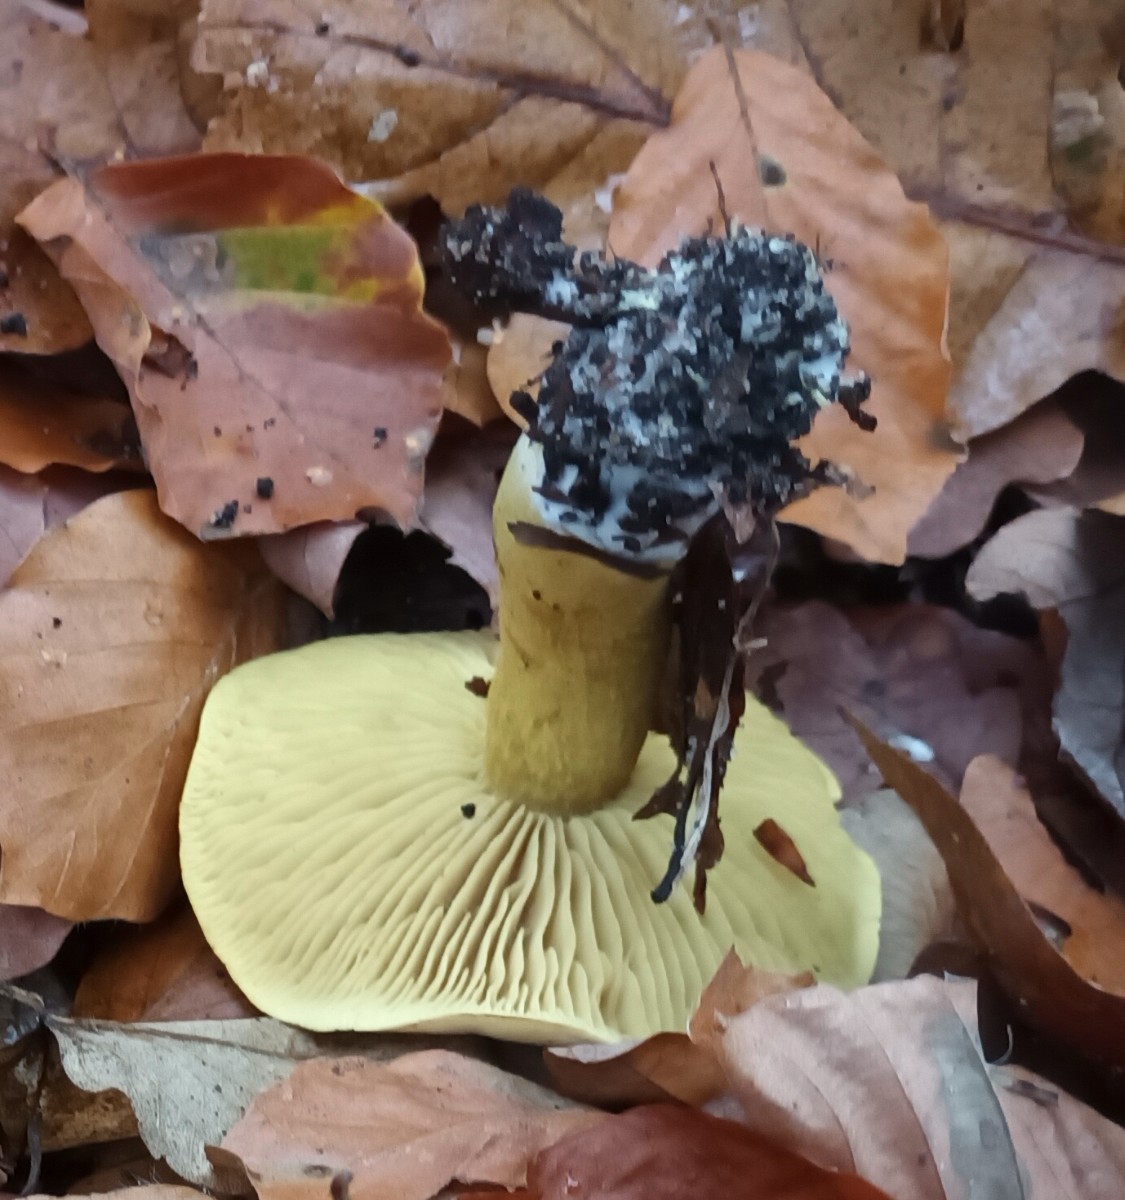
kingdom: Fungi
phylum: Basidiomycota
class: Agaricomycetes
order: Agaricales
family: Tricholomataceae
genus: Tricholoma
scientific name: Tricholoma sulphureum
